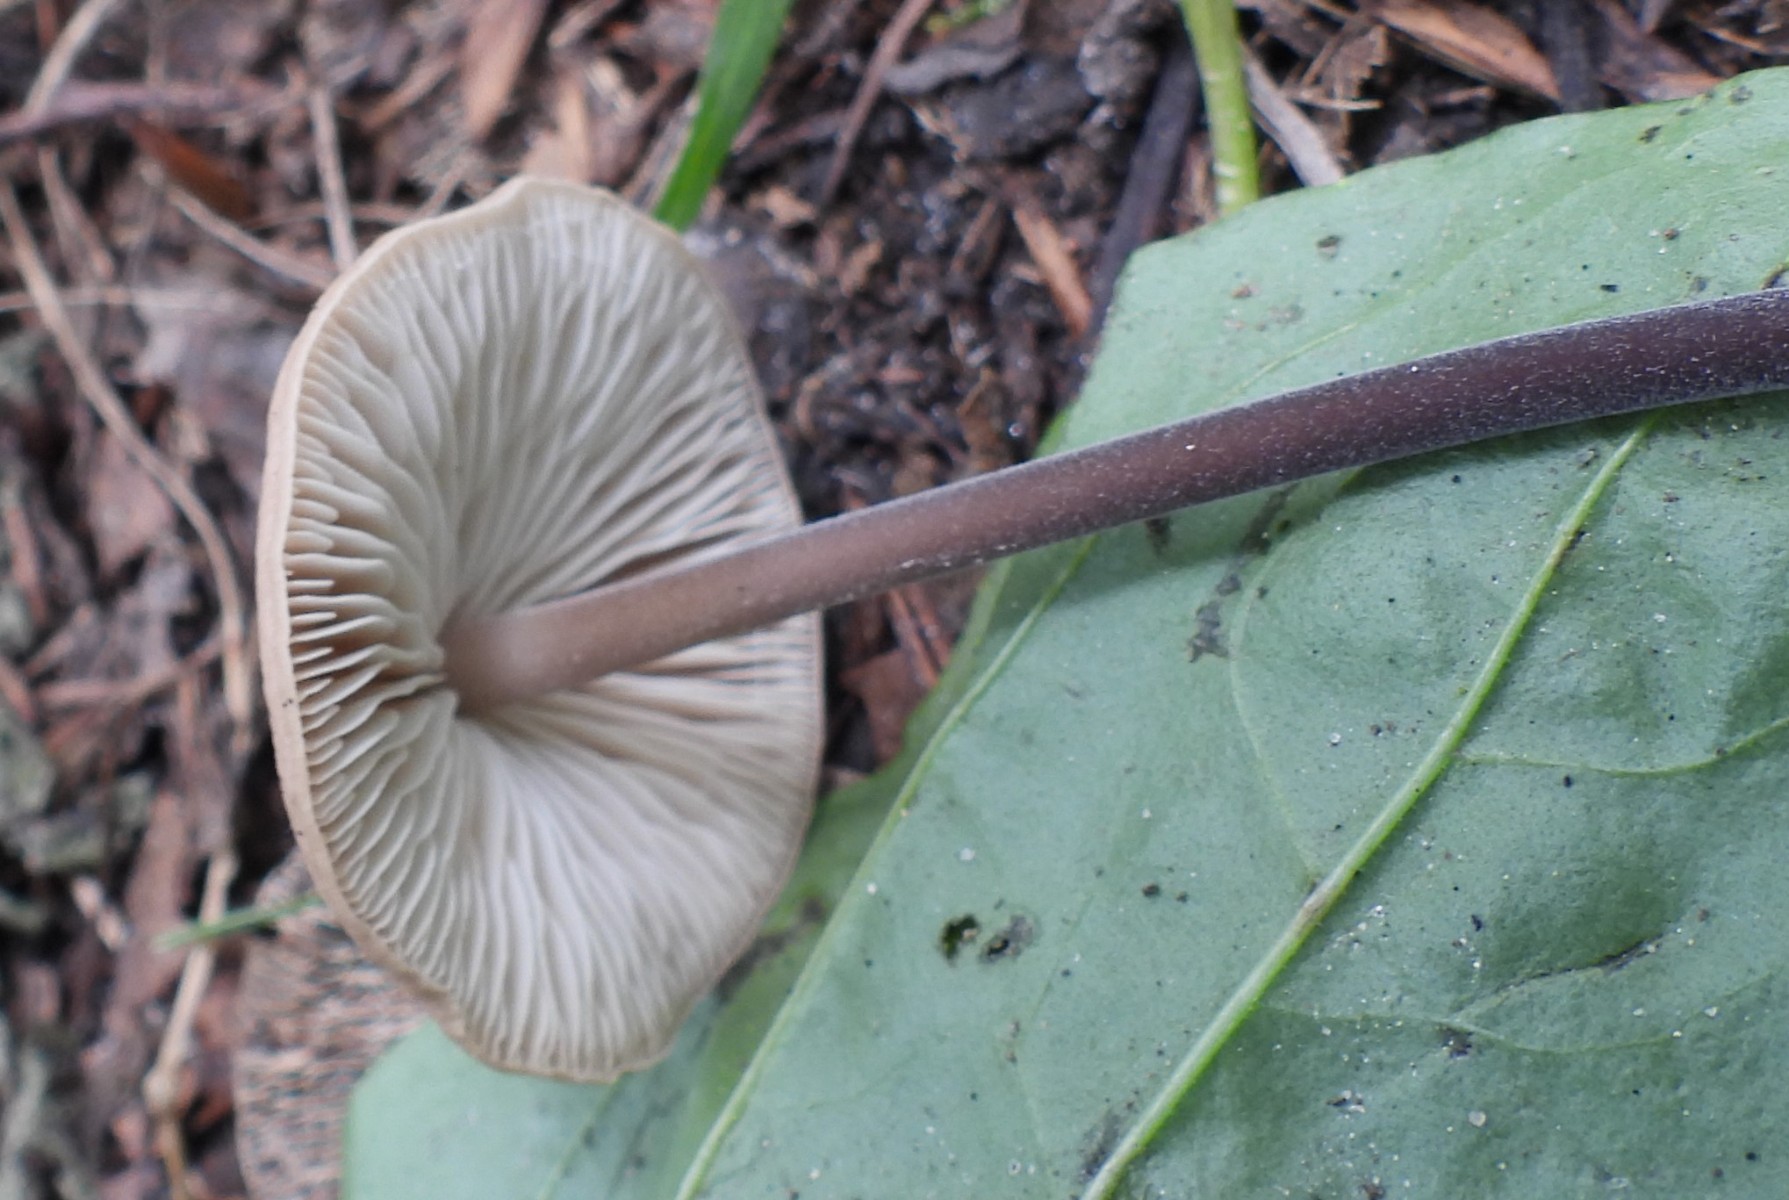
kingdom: Fungi
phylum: Basidiomycota
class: Agaricomycetes
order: Agaricales
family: Omphalotaceae
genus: Mycetinis
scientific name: Mycetinis alliaceus
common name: stor løghat
